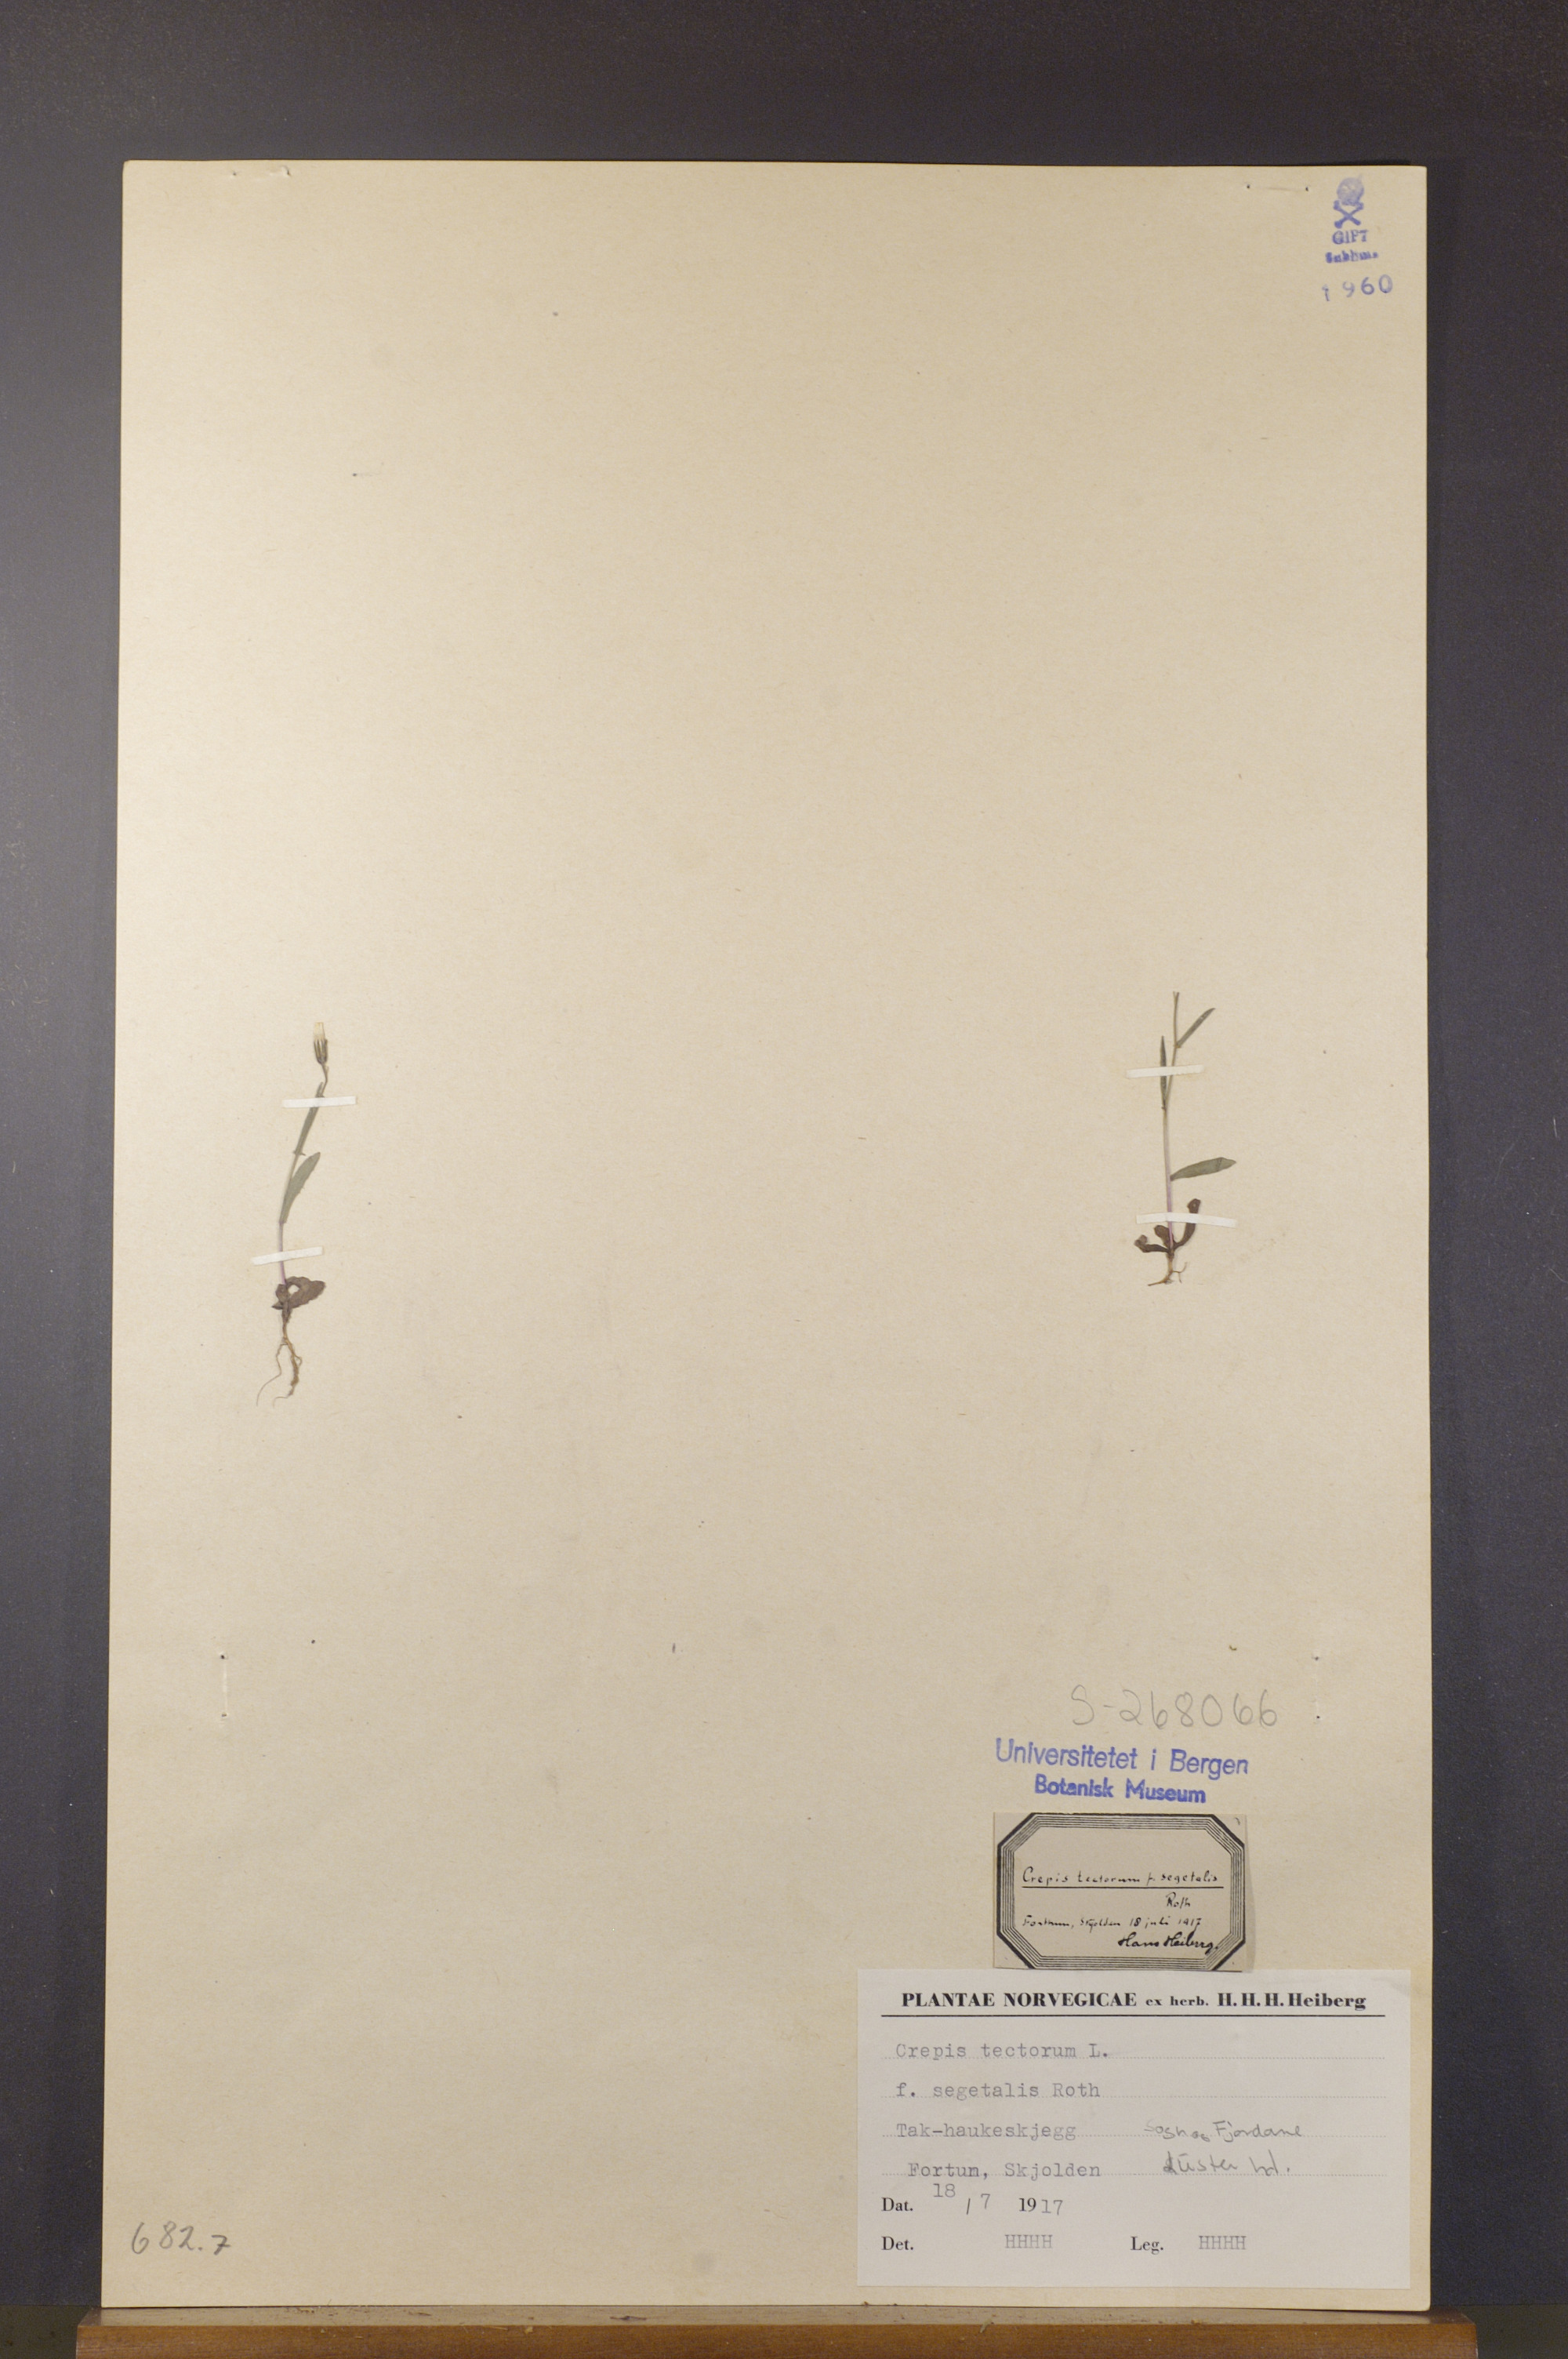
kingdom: Plantae
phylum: Tracheophyta
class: Magnoliopsida
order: Asterales
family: Asteraceae
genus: Crepis
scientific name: Crepis tectorum
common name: Narrow-leaved hawk's-beard
